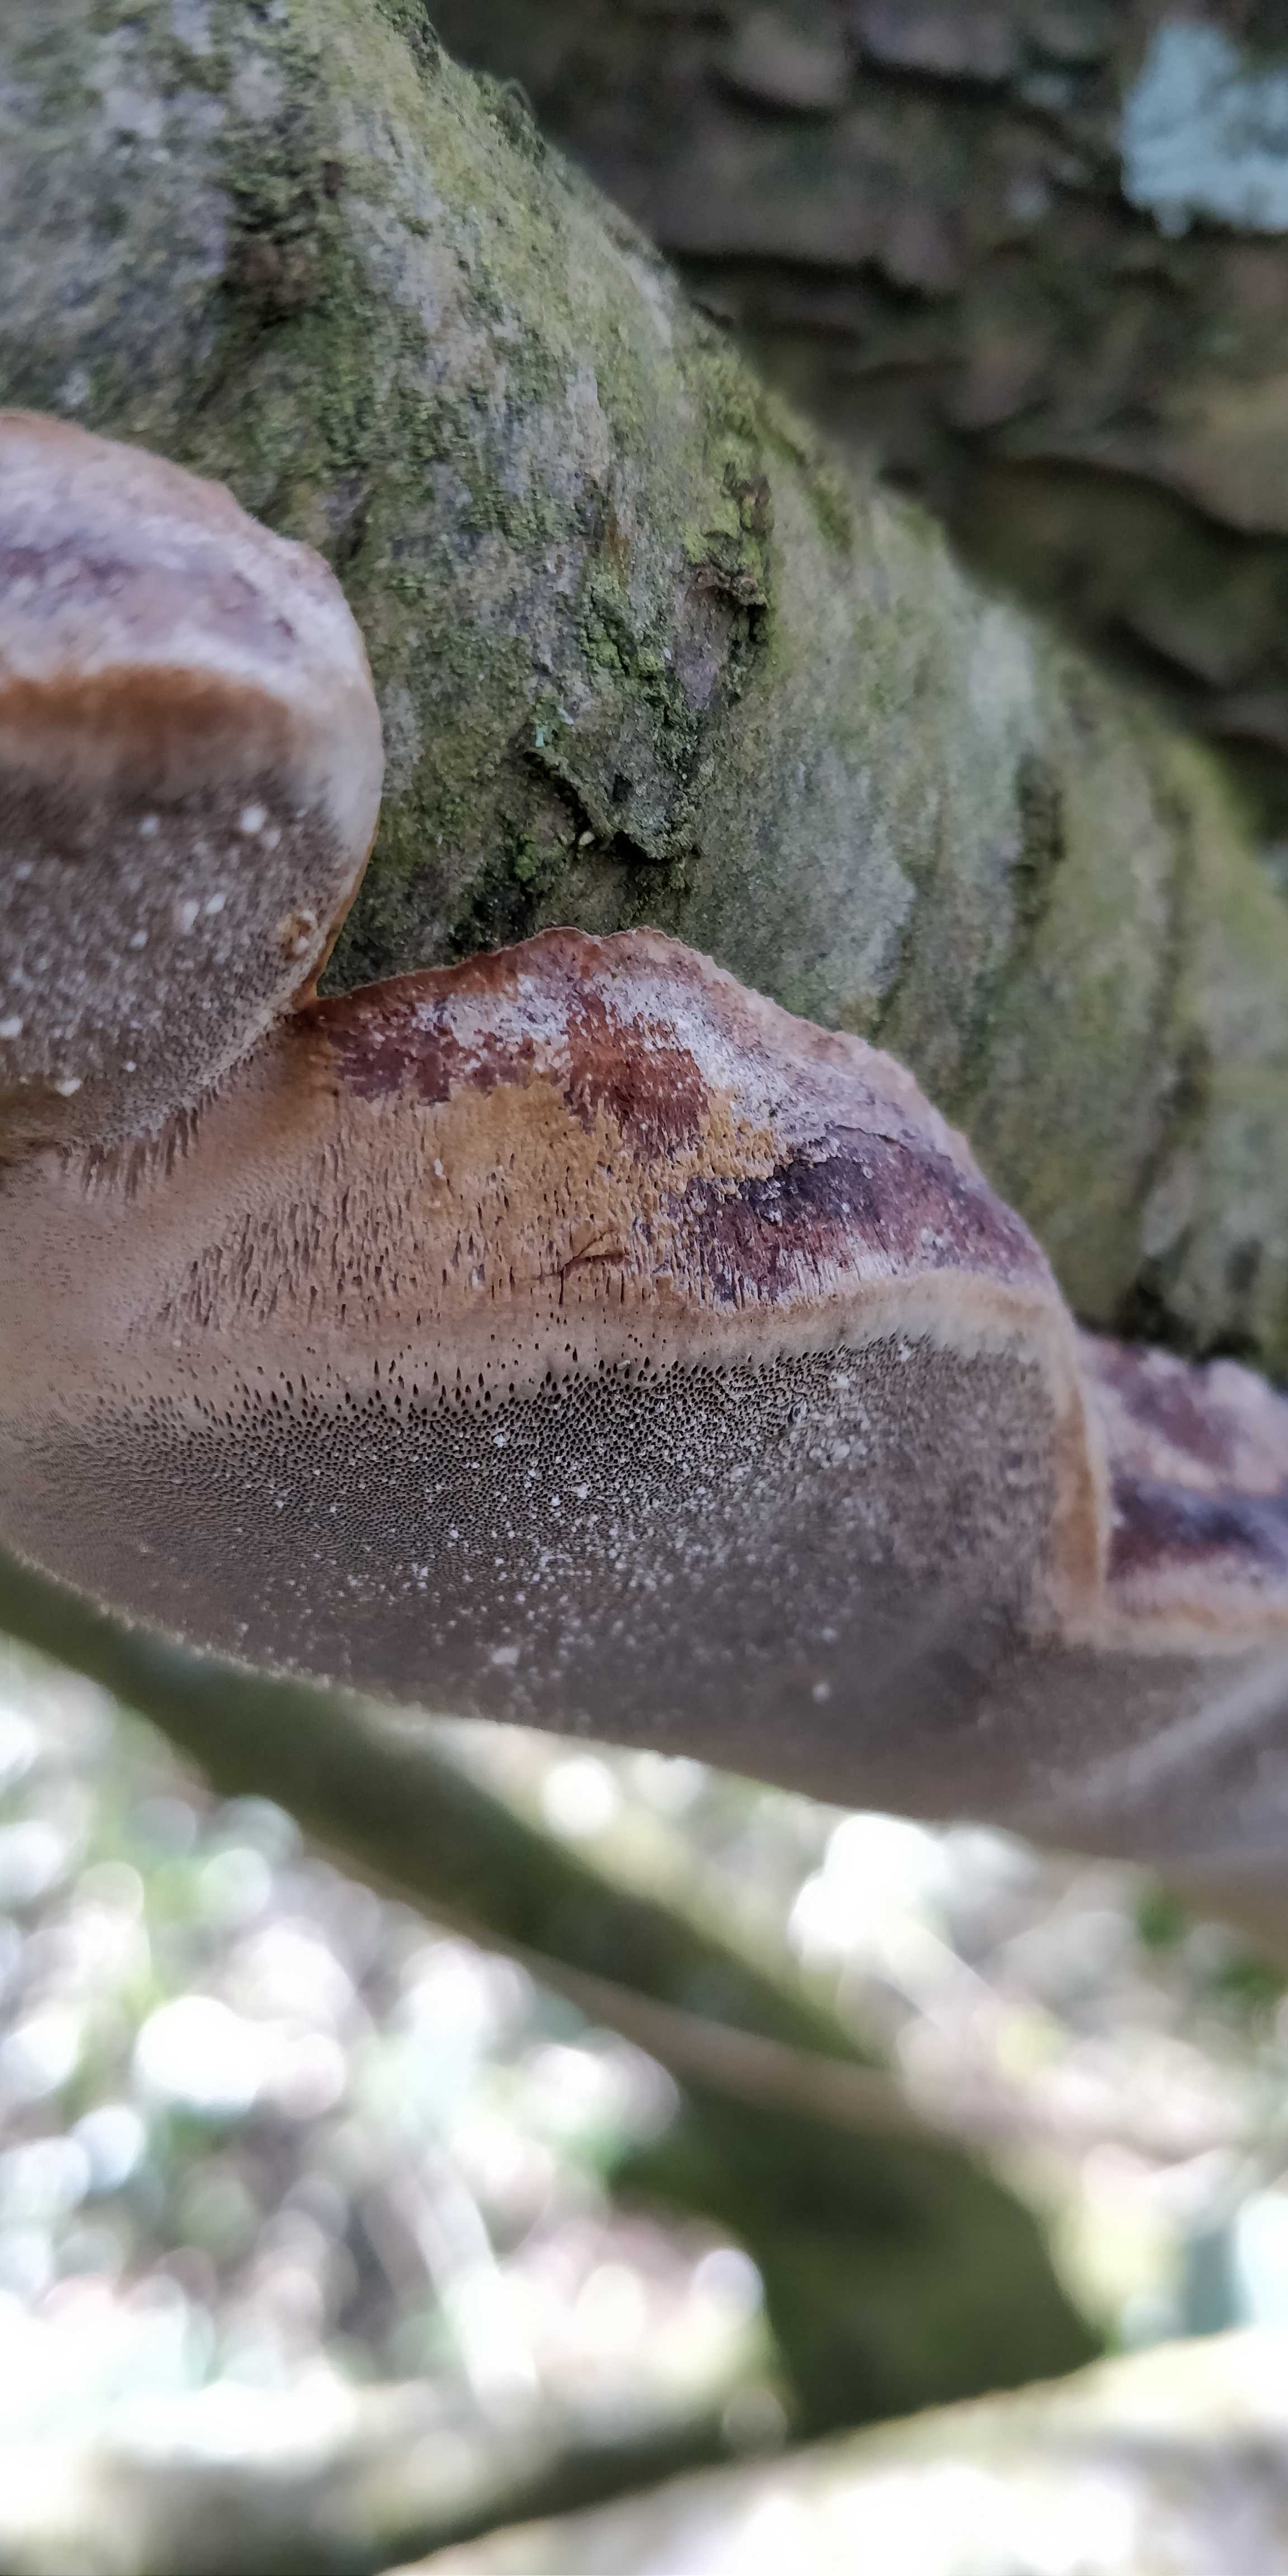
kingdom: Fungi
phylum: Basidiomycota
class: Agaricomycetes
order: Hymenochaetales
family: Hymenochaetaceae
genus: Phellinus
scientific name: Phellinus pomaceus
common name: blomme-ildporesvamp
